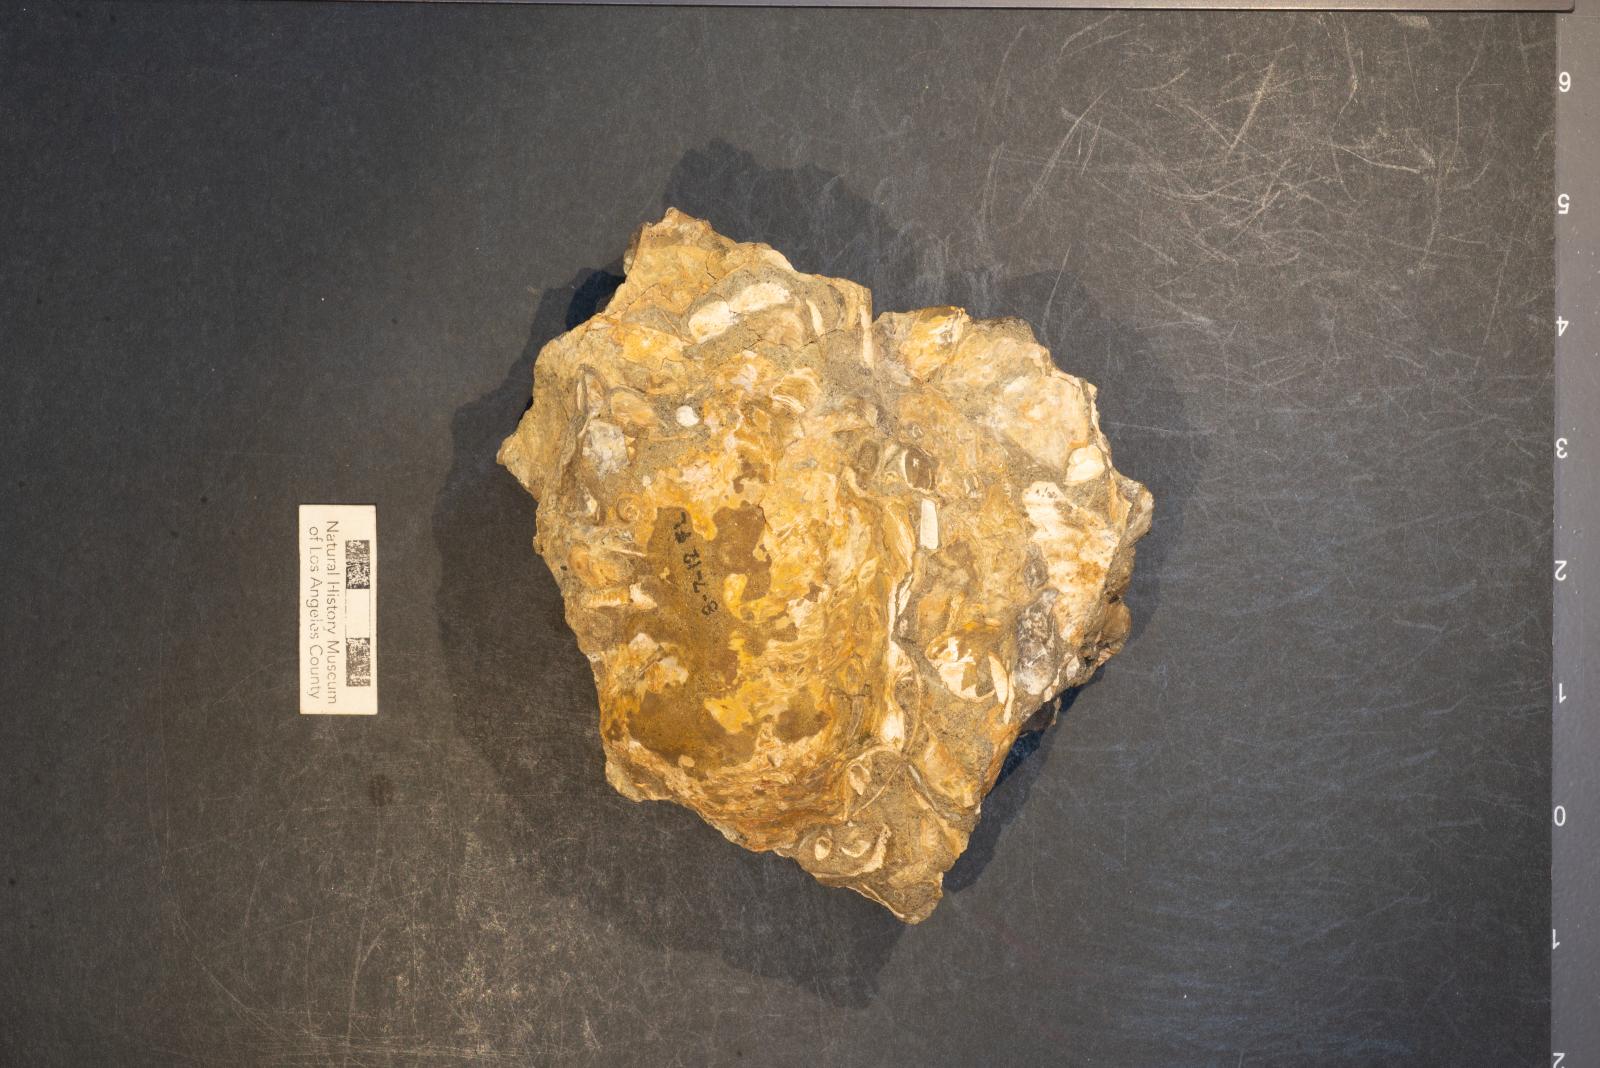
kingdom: Animalia
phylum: Mollusca
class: Gastropoda
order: Littorinimorpha
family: Xenophoridae
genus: Xenophora
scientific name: Xenophora hermax
